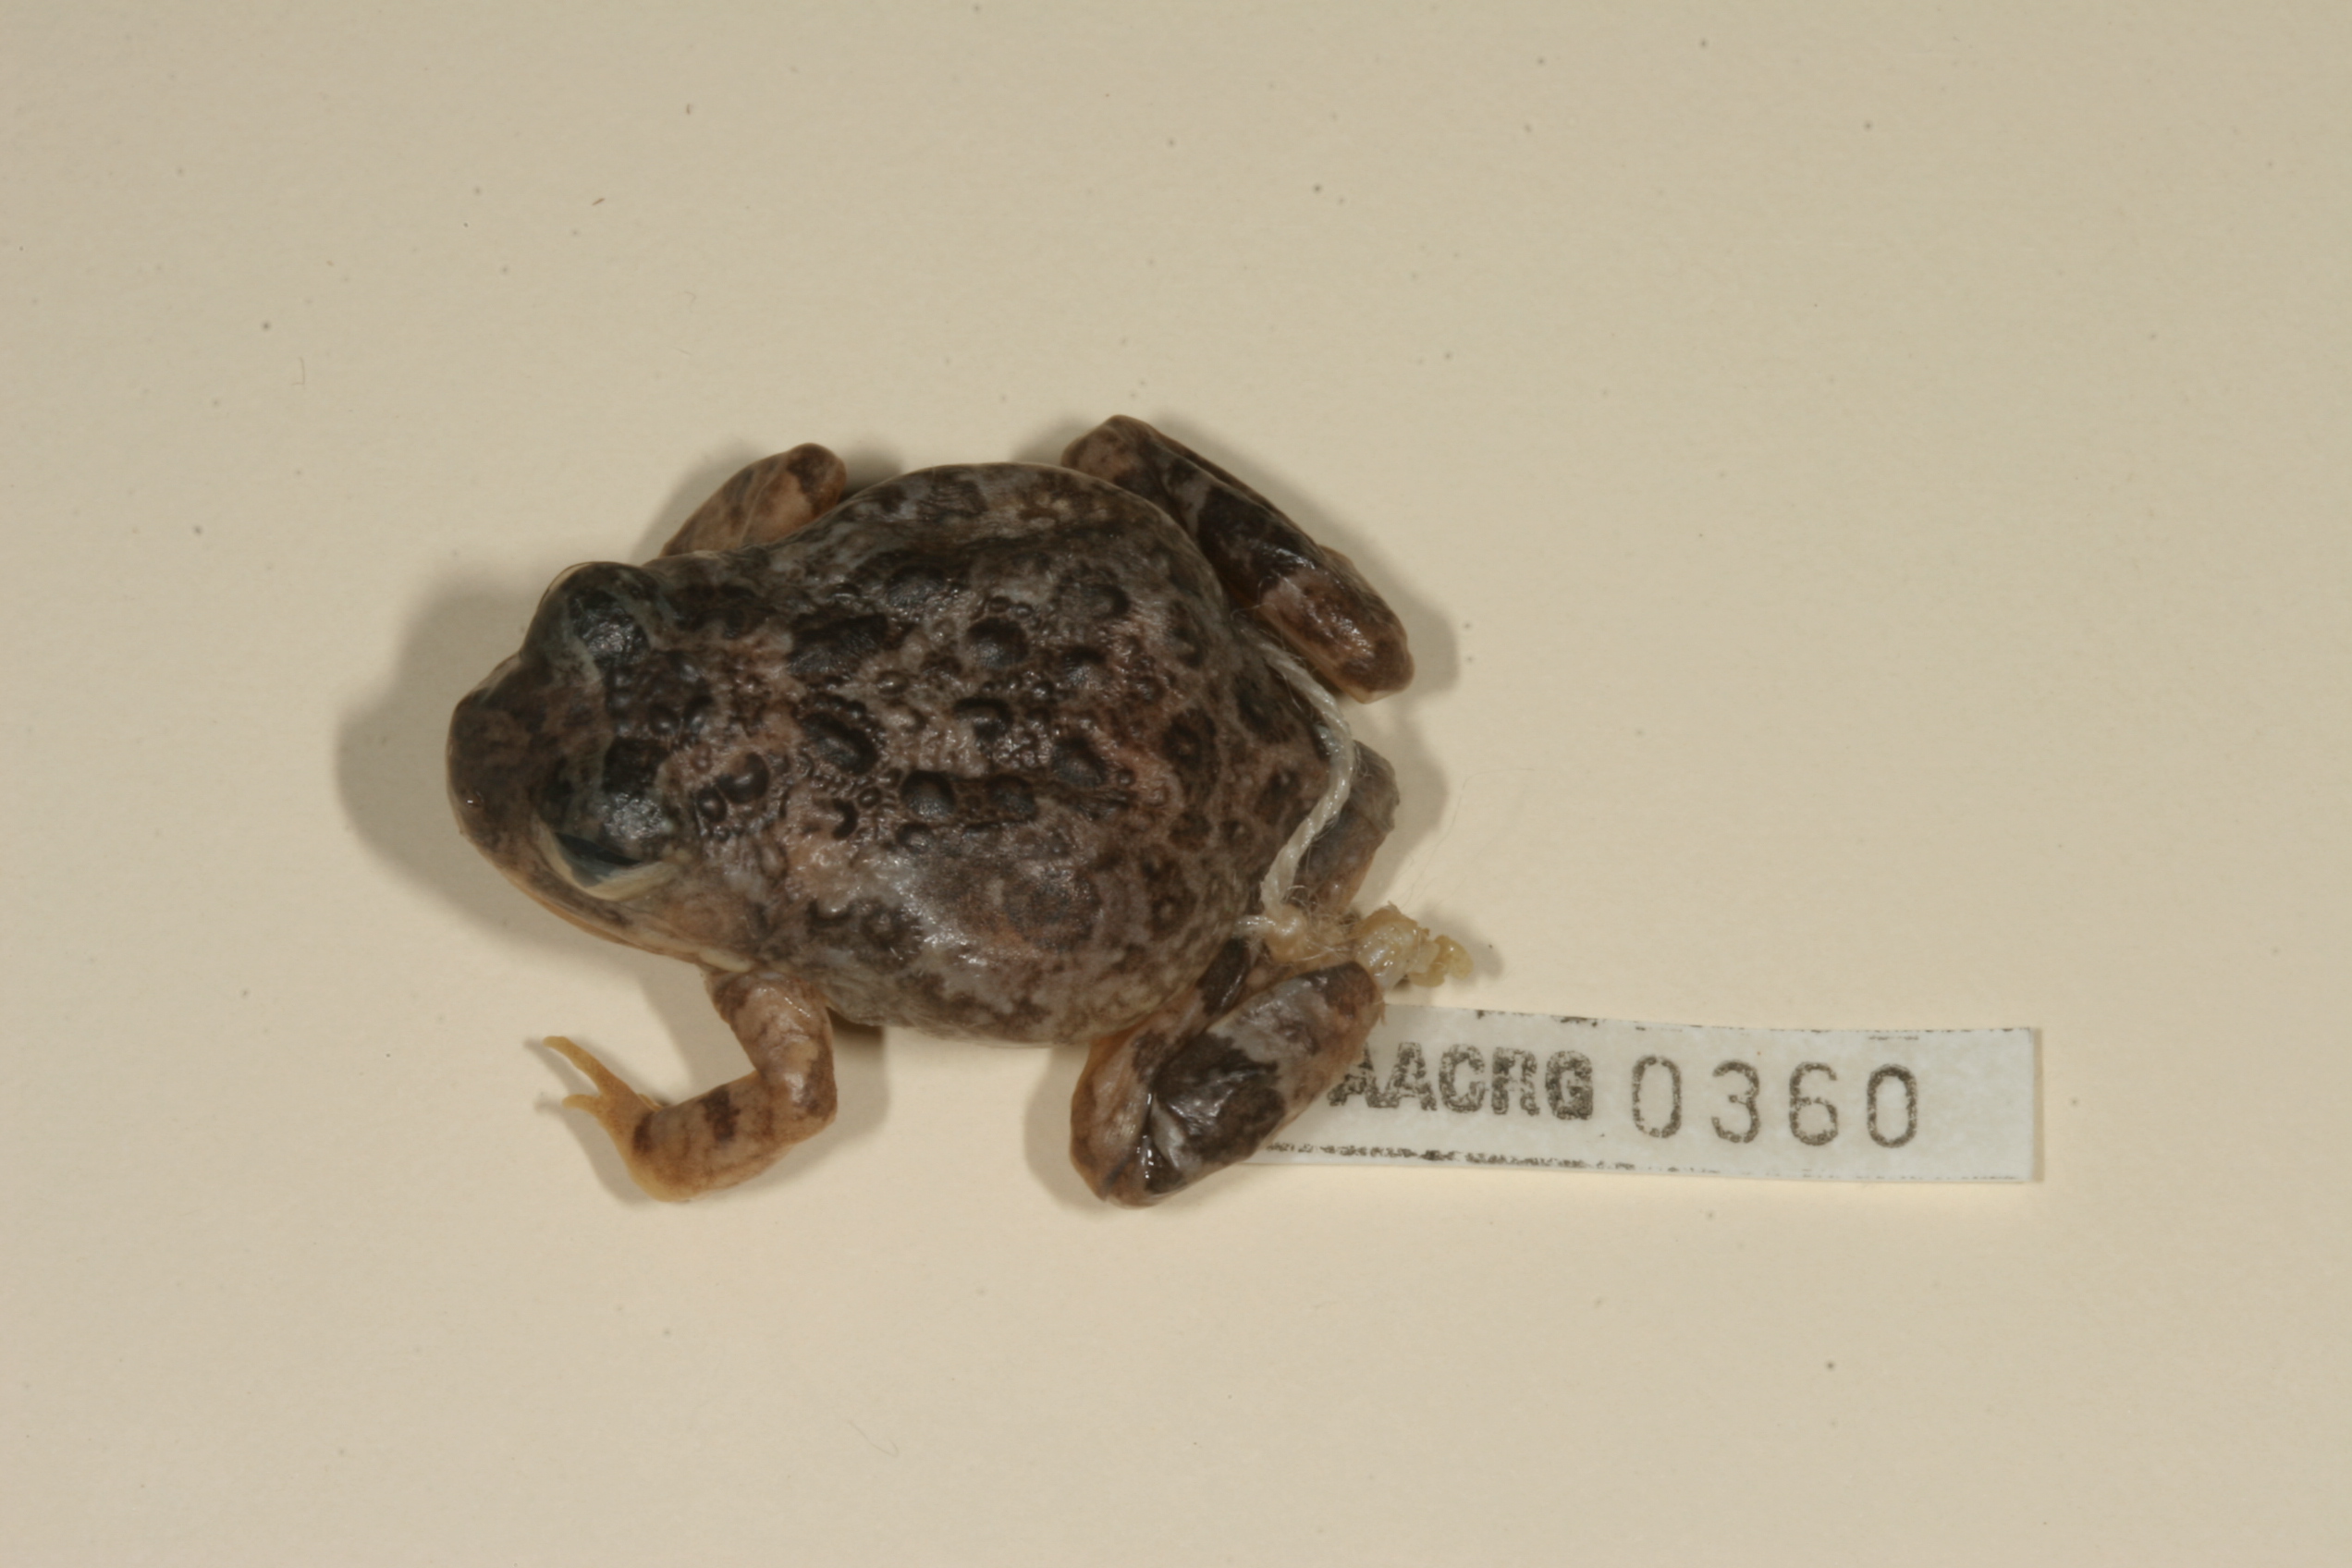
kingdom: Animalia
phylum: Chordata
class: Amphibia
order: Anura
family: Pyxicephalidae
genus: Tomopterna
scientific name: Tomopterna cryptotis
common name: Catequero bullfrog
